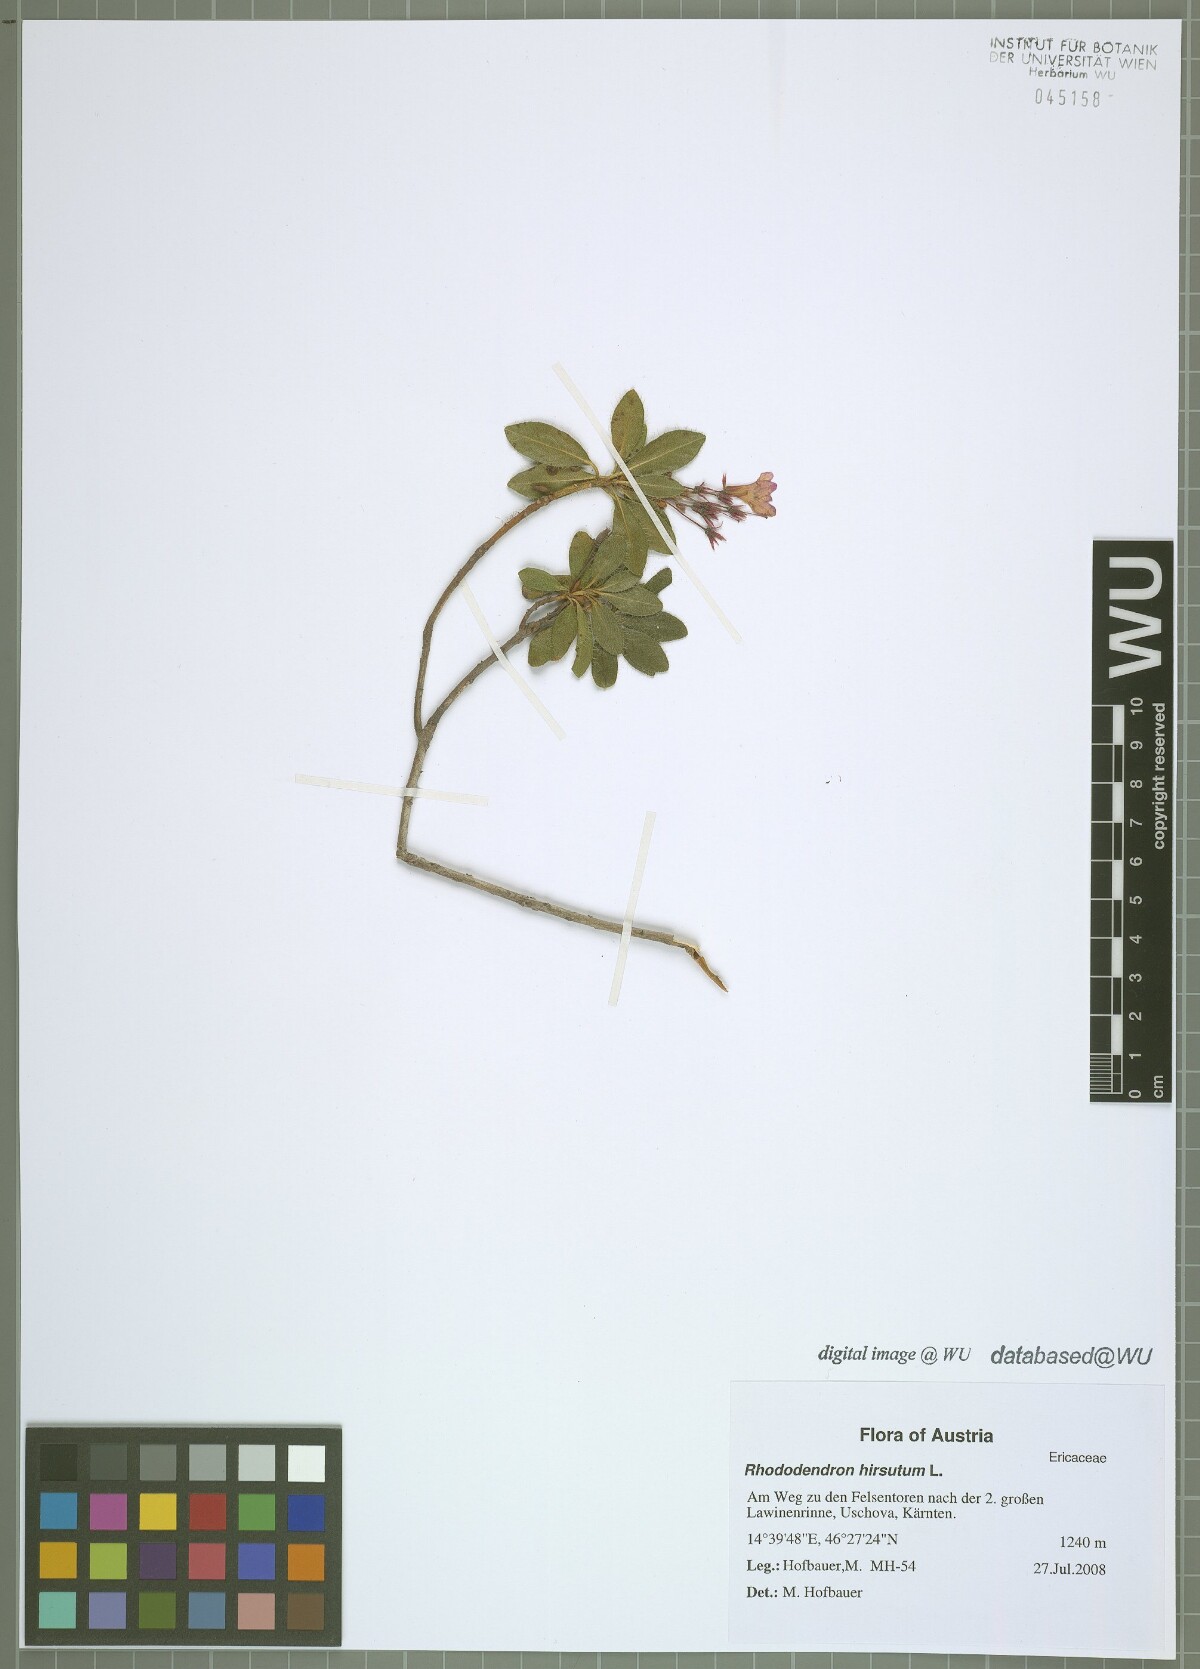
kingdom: Plantae
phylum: Tracheophyta
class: Magnoliopsida
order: Ericales
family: Ericaceae
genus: Rhododendron
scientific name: Rhododendron hirsutum
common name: Hairy alpenrose
